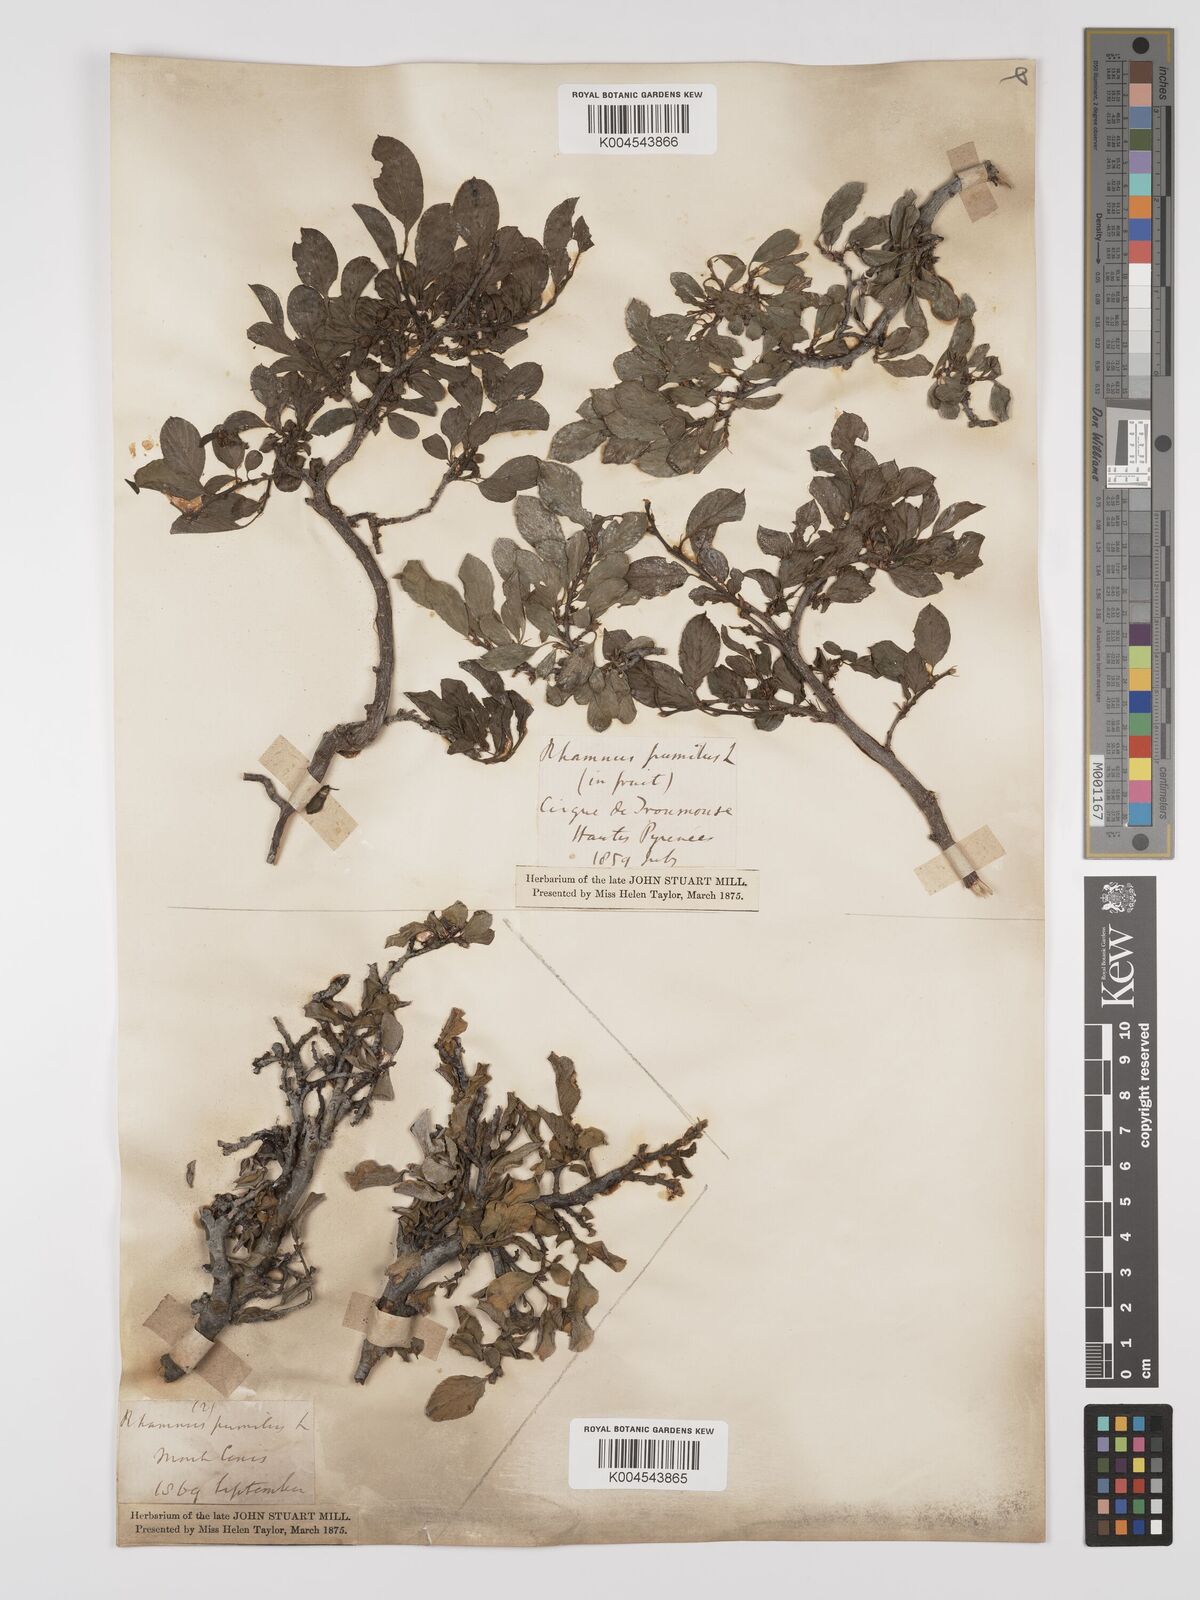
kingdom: Plantae
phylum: Tracheophyta
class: Magnoliopsida
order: Rosales
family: Rhamnaceae
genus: Rhamnus
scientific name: Rhamnus
